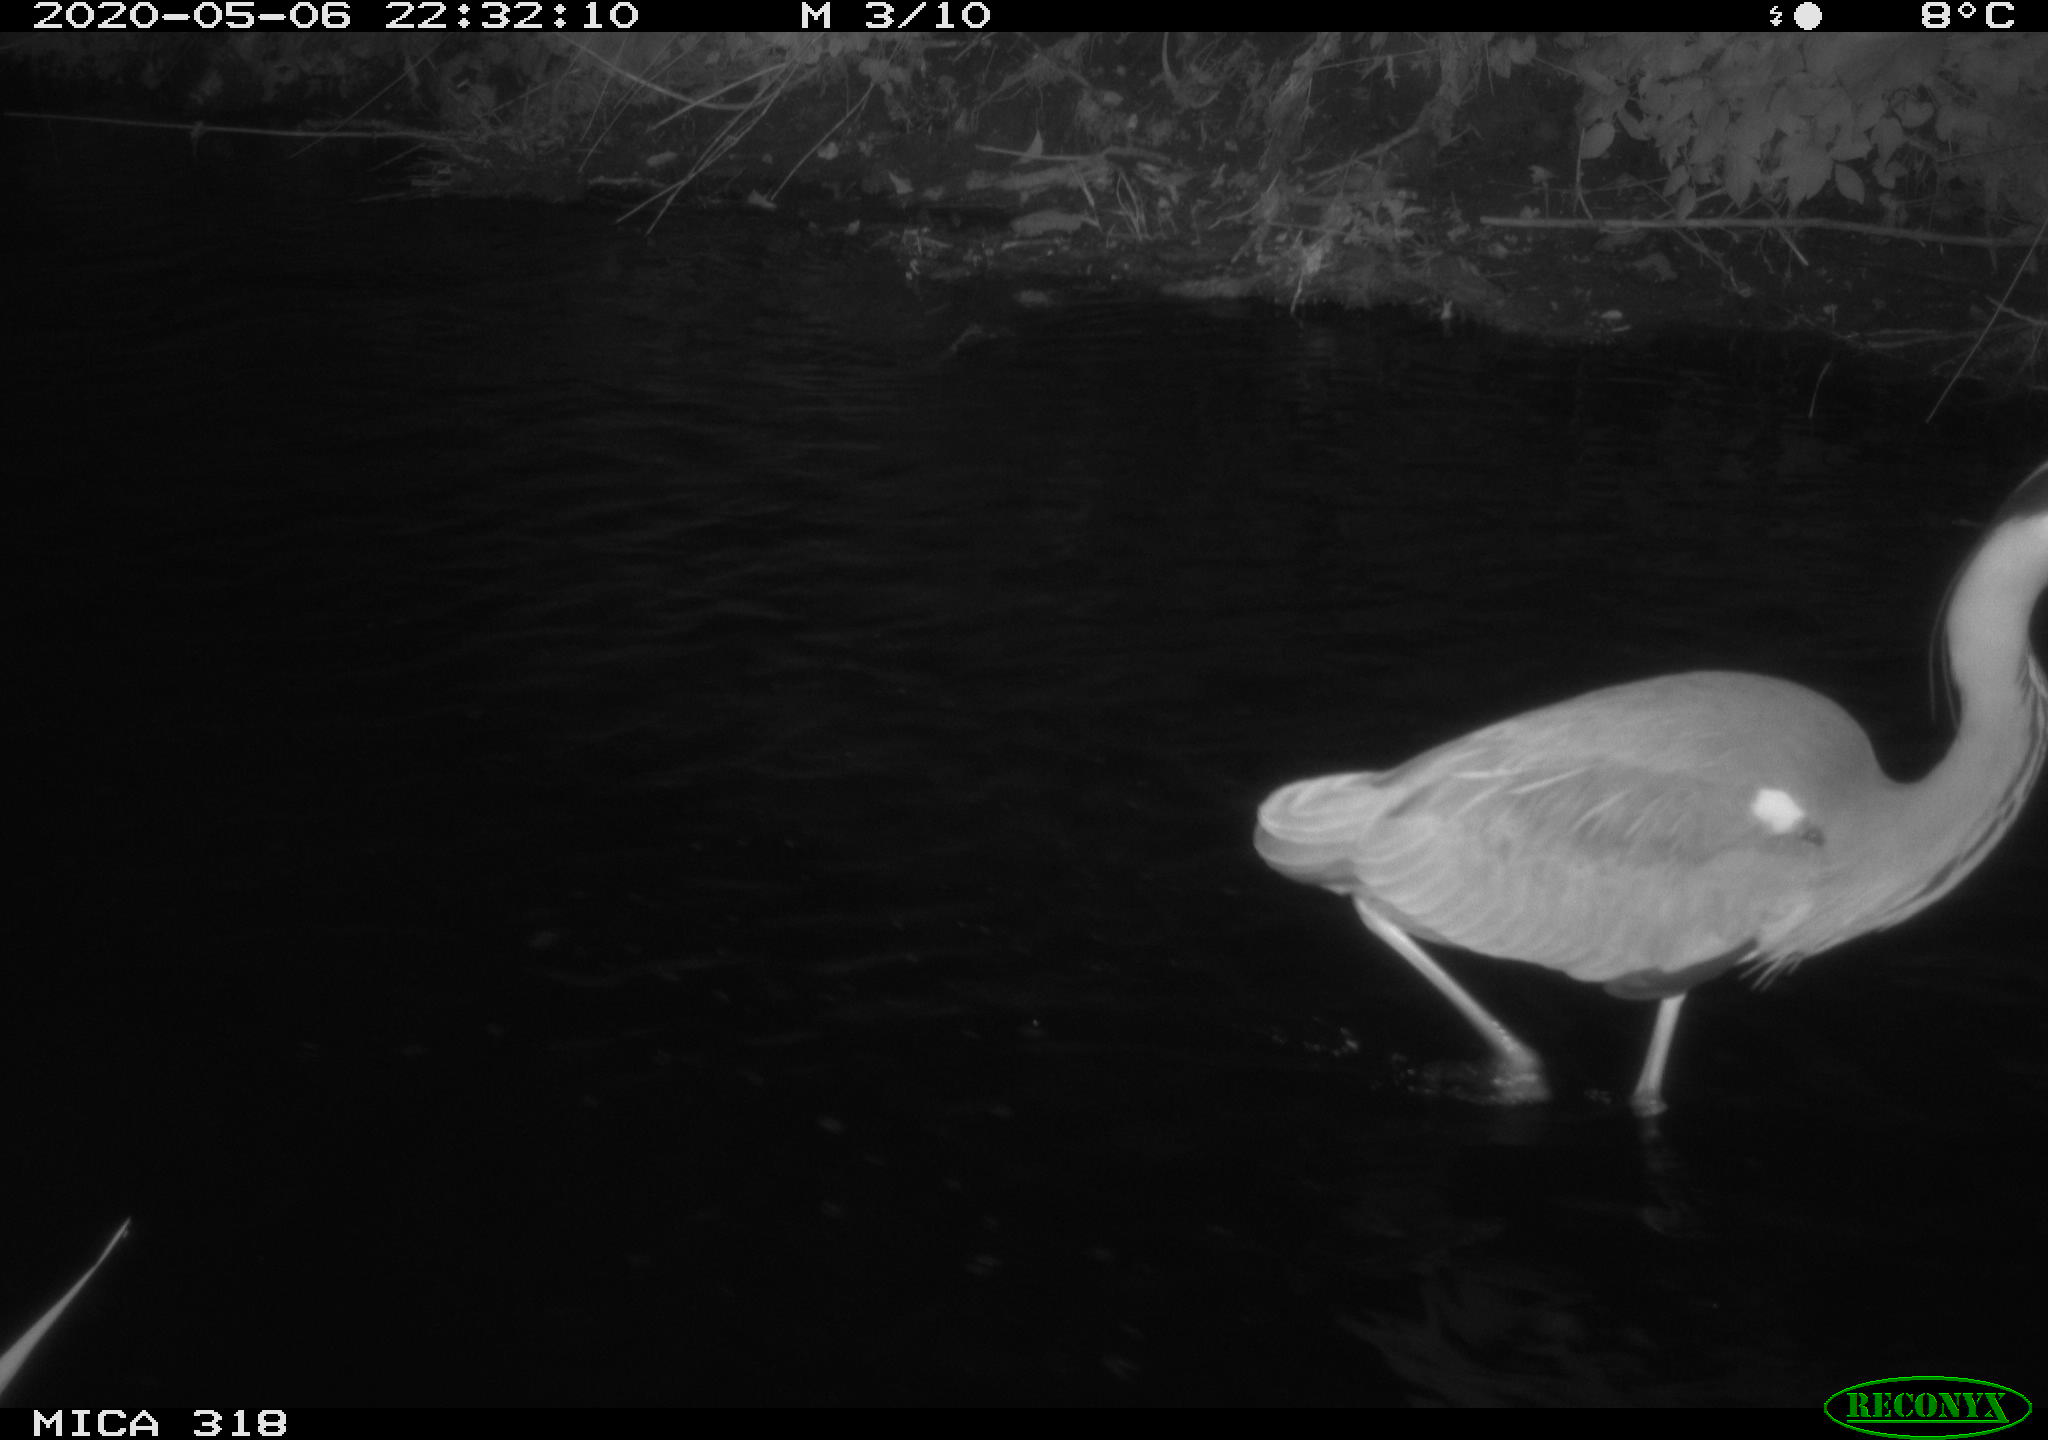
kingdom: Animalia
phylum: Chordata
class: Aves
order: Pelecaniformes
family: Ardeidae
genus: Ardea
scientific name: Ardea cinerea
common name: Grey heron
